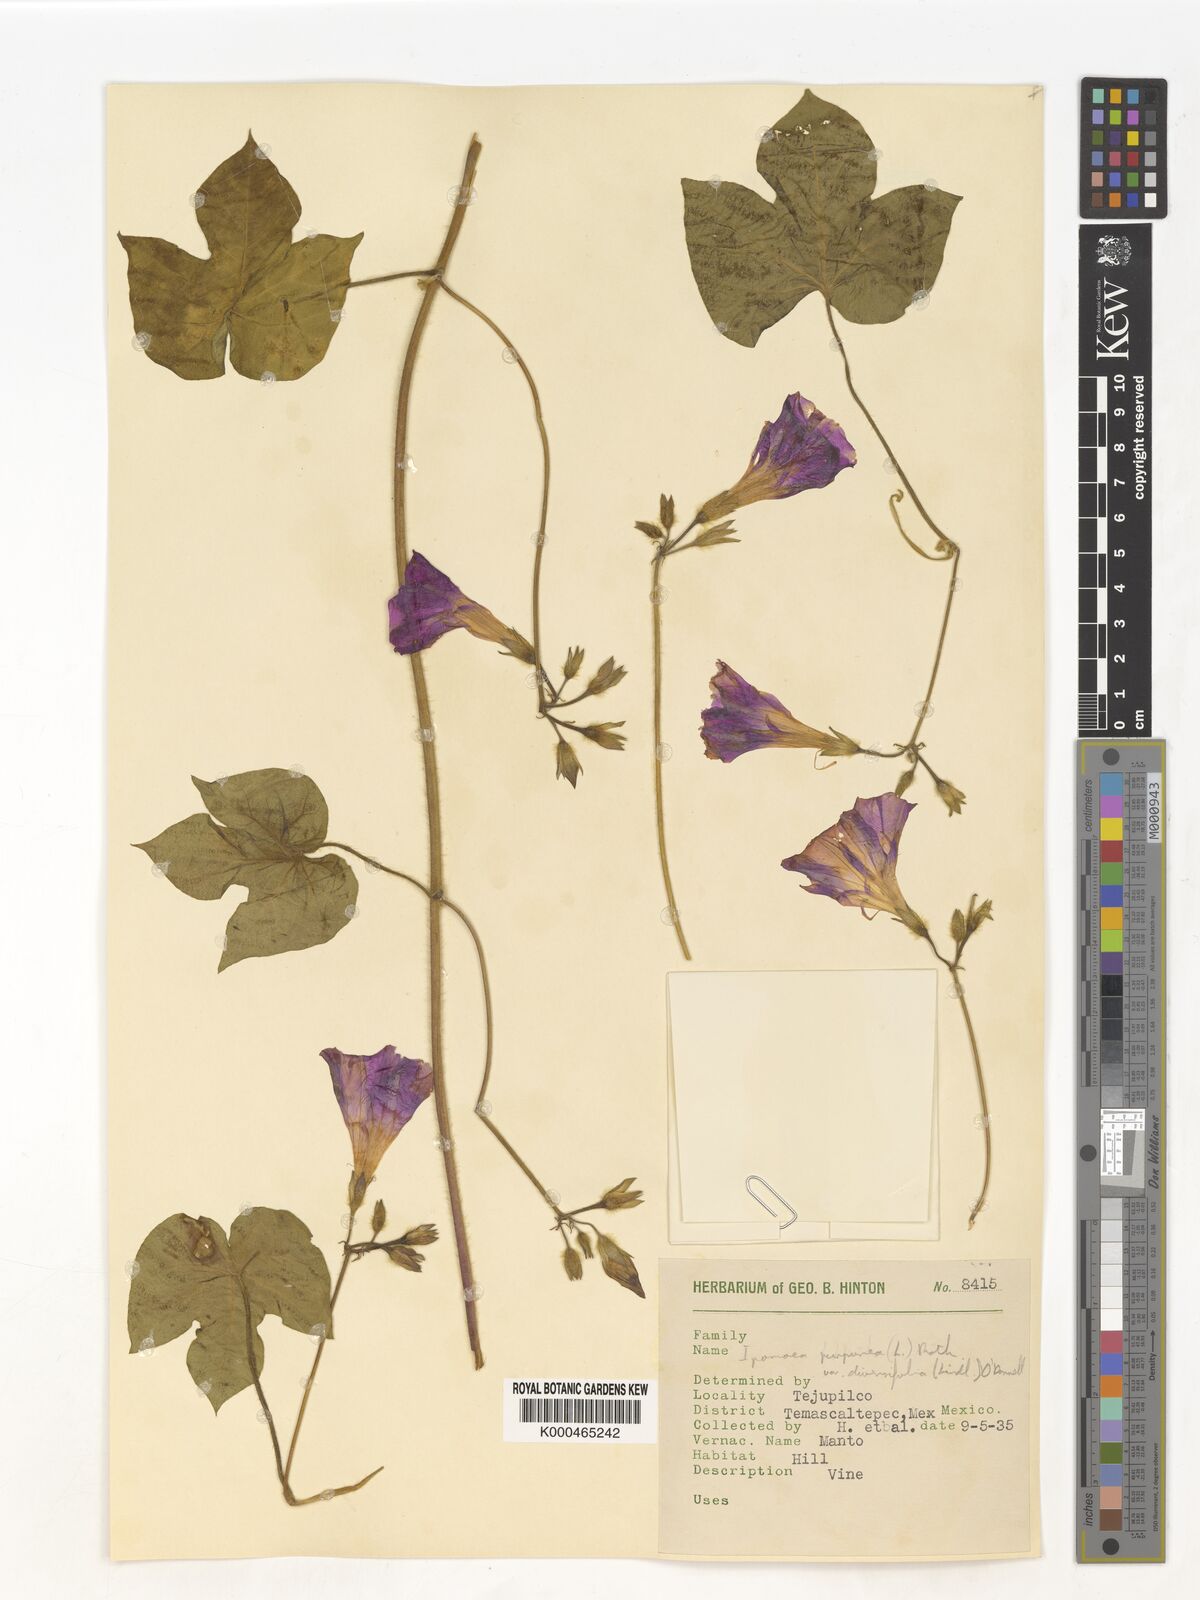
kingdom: Plantae
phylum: Tracheophyta
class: Magnoliopsida
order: Solanales
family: Convolvulaceae
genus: Ipomoea
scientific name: Ipomoea purpurea
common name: Common morning-glory
